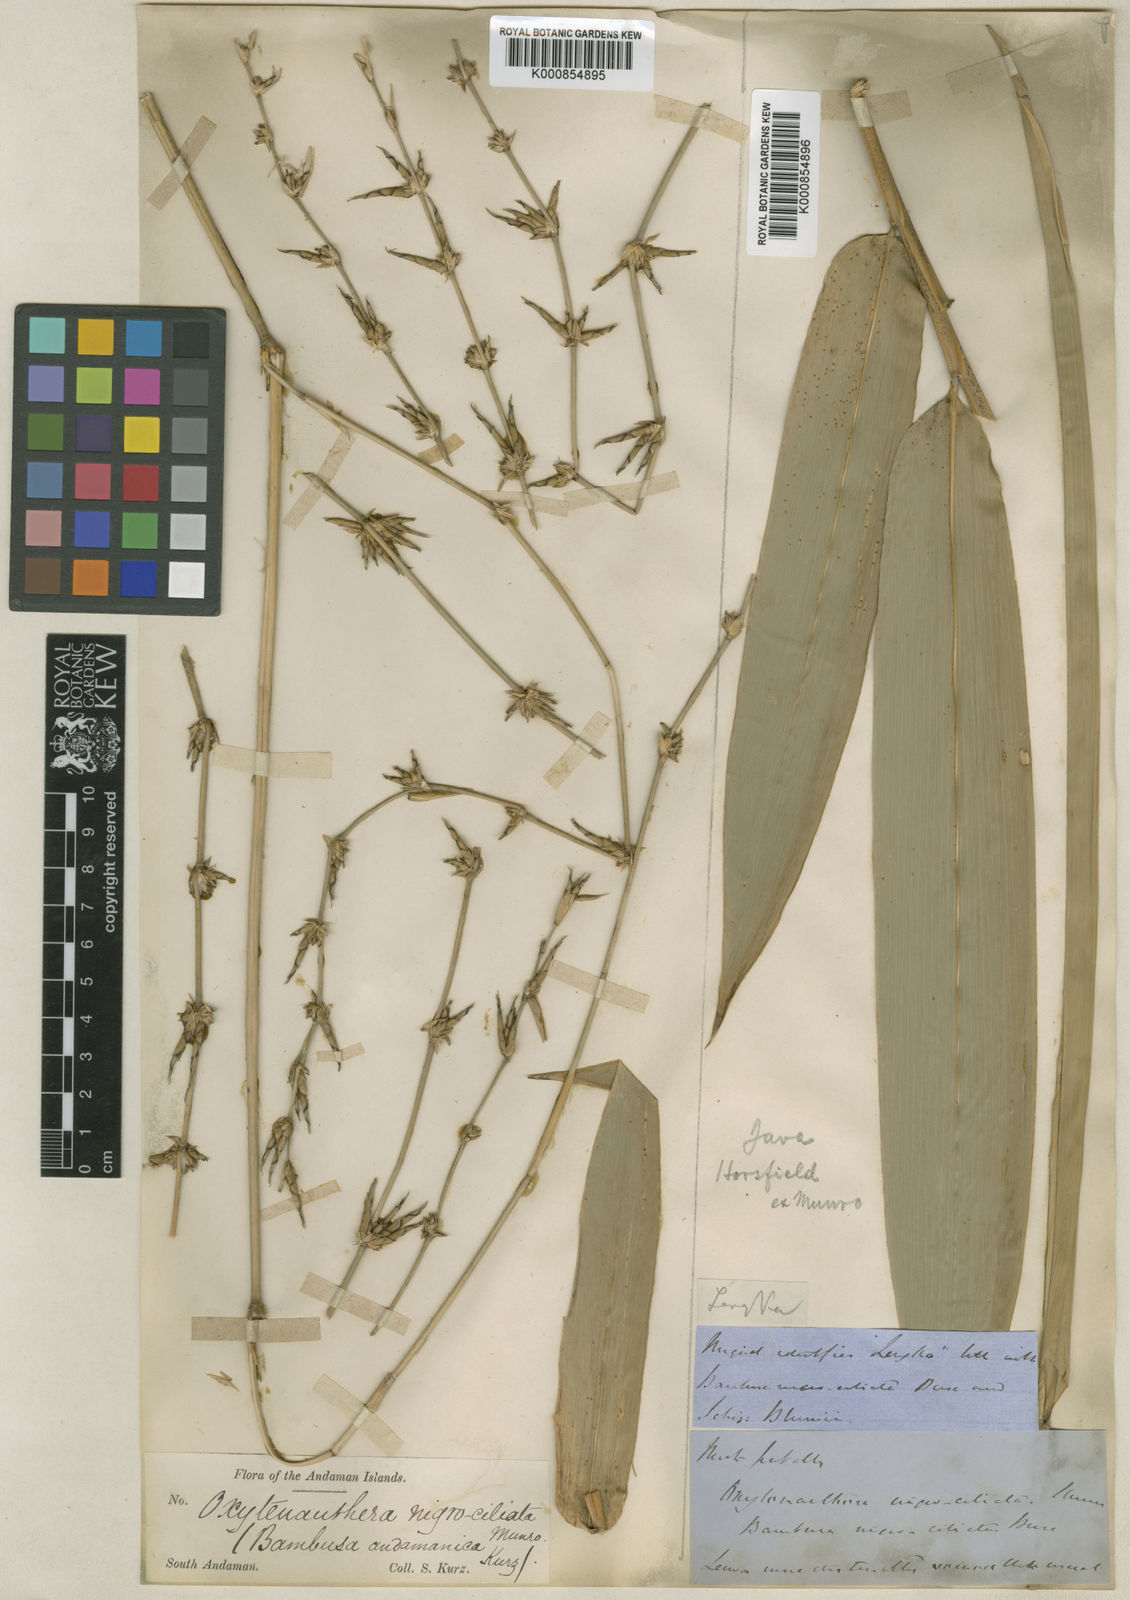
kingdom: Plantae
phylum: Tracheophyta
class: Liliopsida
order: Poales
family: Poaceae
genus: Gigantochloa
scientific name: Gigantochloa nigrociliata
